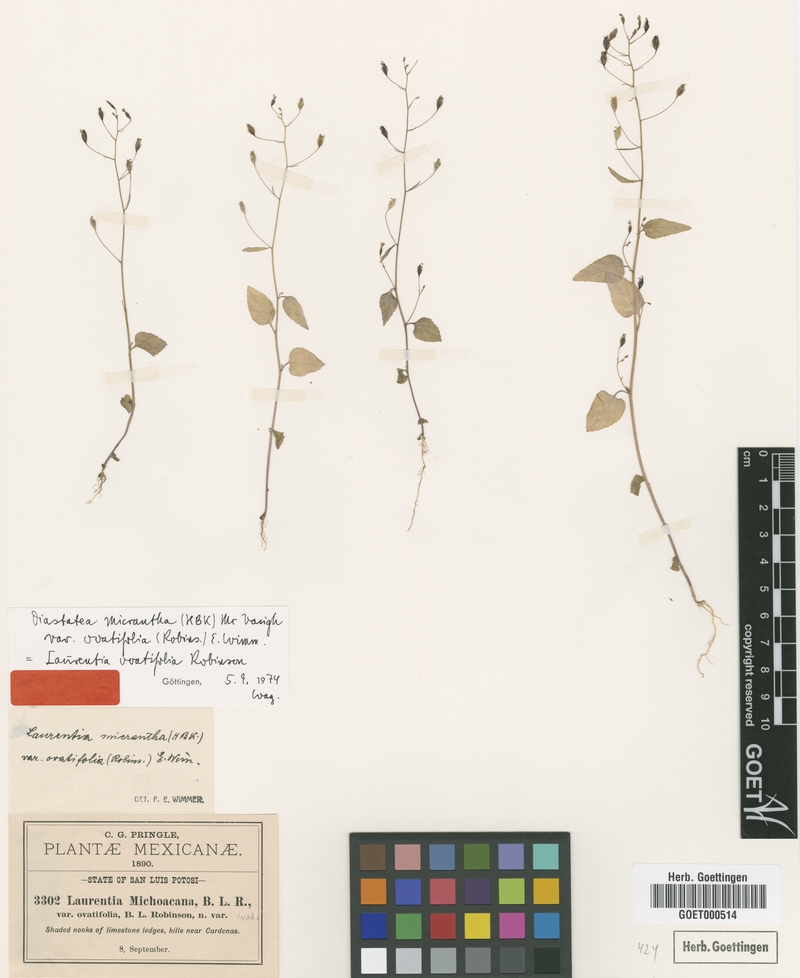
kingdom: Plantae
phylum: Tracheophyta
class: Magnoliopsida
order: Asterales
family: Campanulaceae
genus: Diastatea
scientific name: Diastatea micrantha
